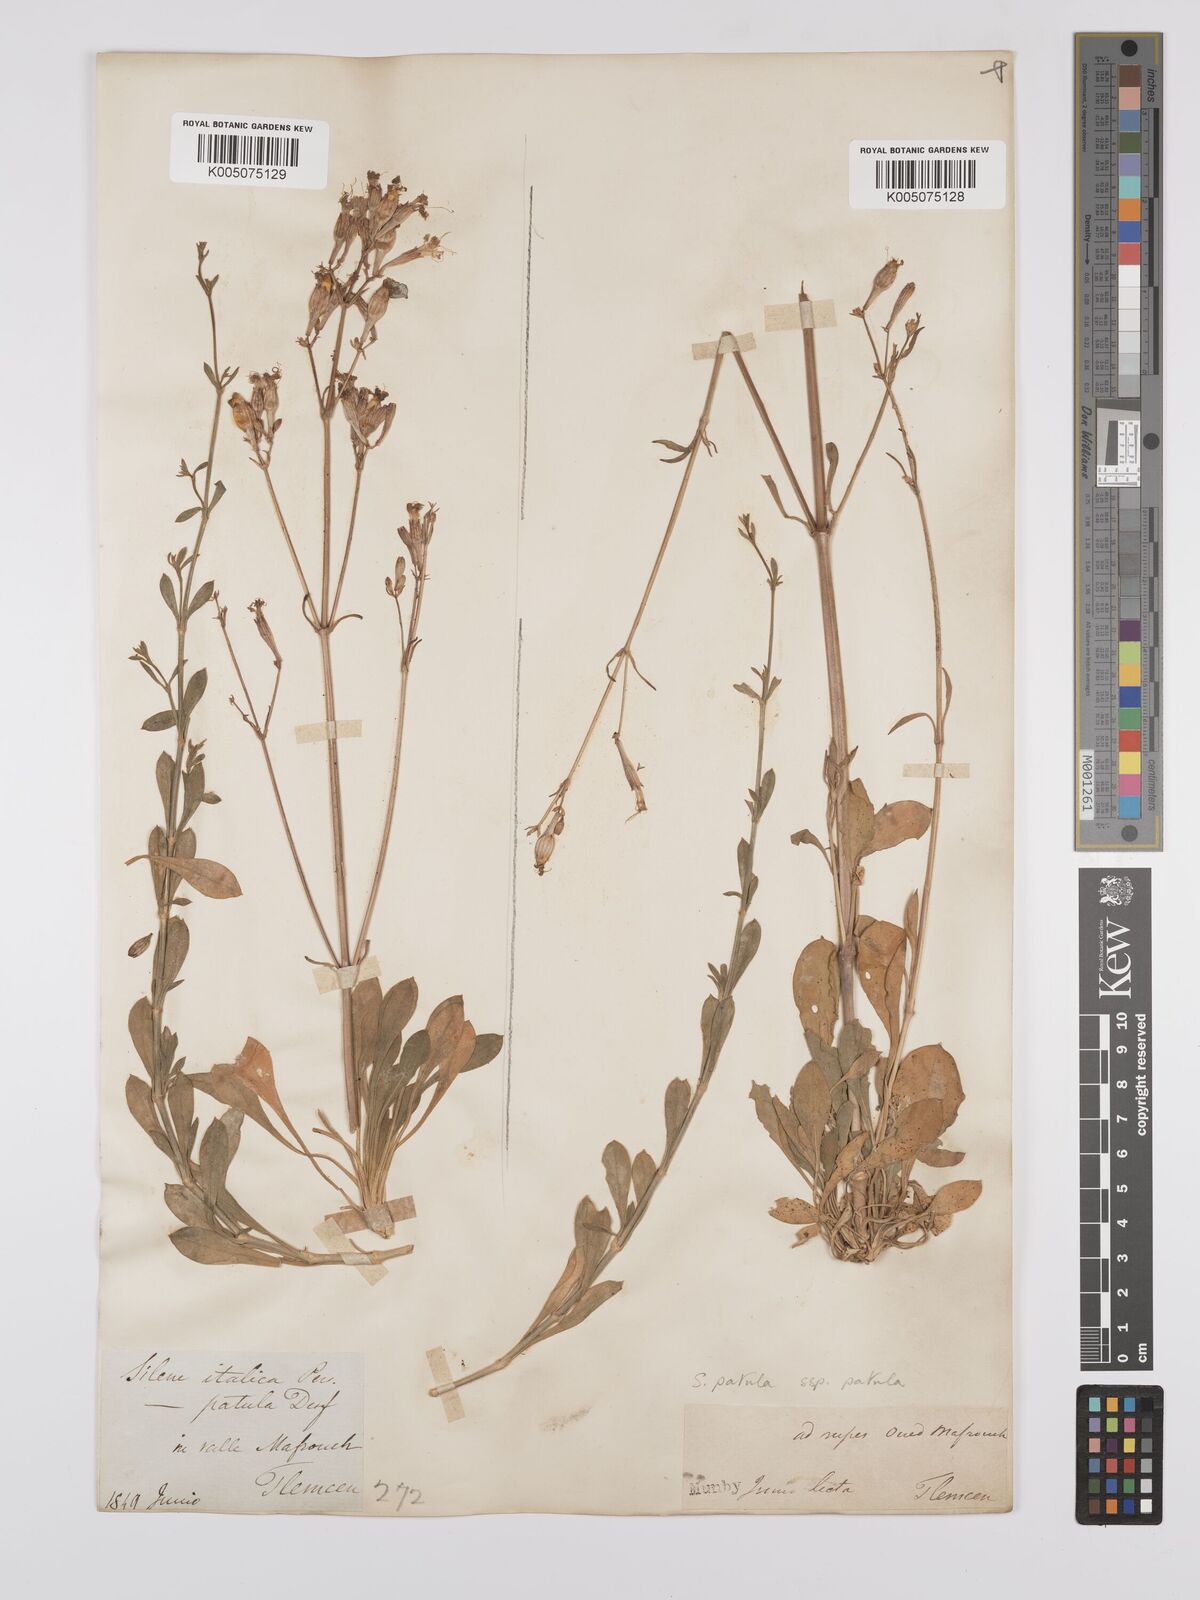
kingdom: Plantae
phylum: Tracheophyta
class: Magnoliopsida
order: Caryophyllales
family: Caryophyllaceae
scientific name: Caryophyllaceae
